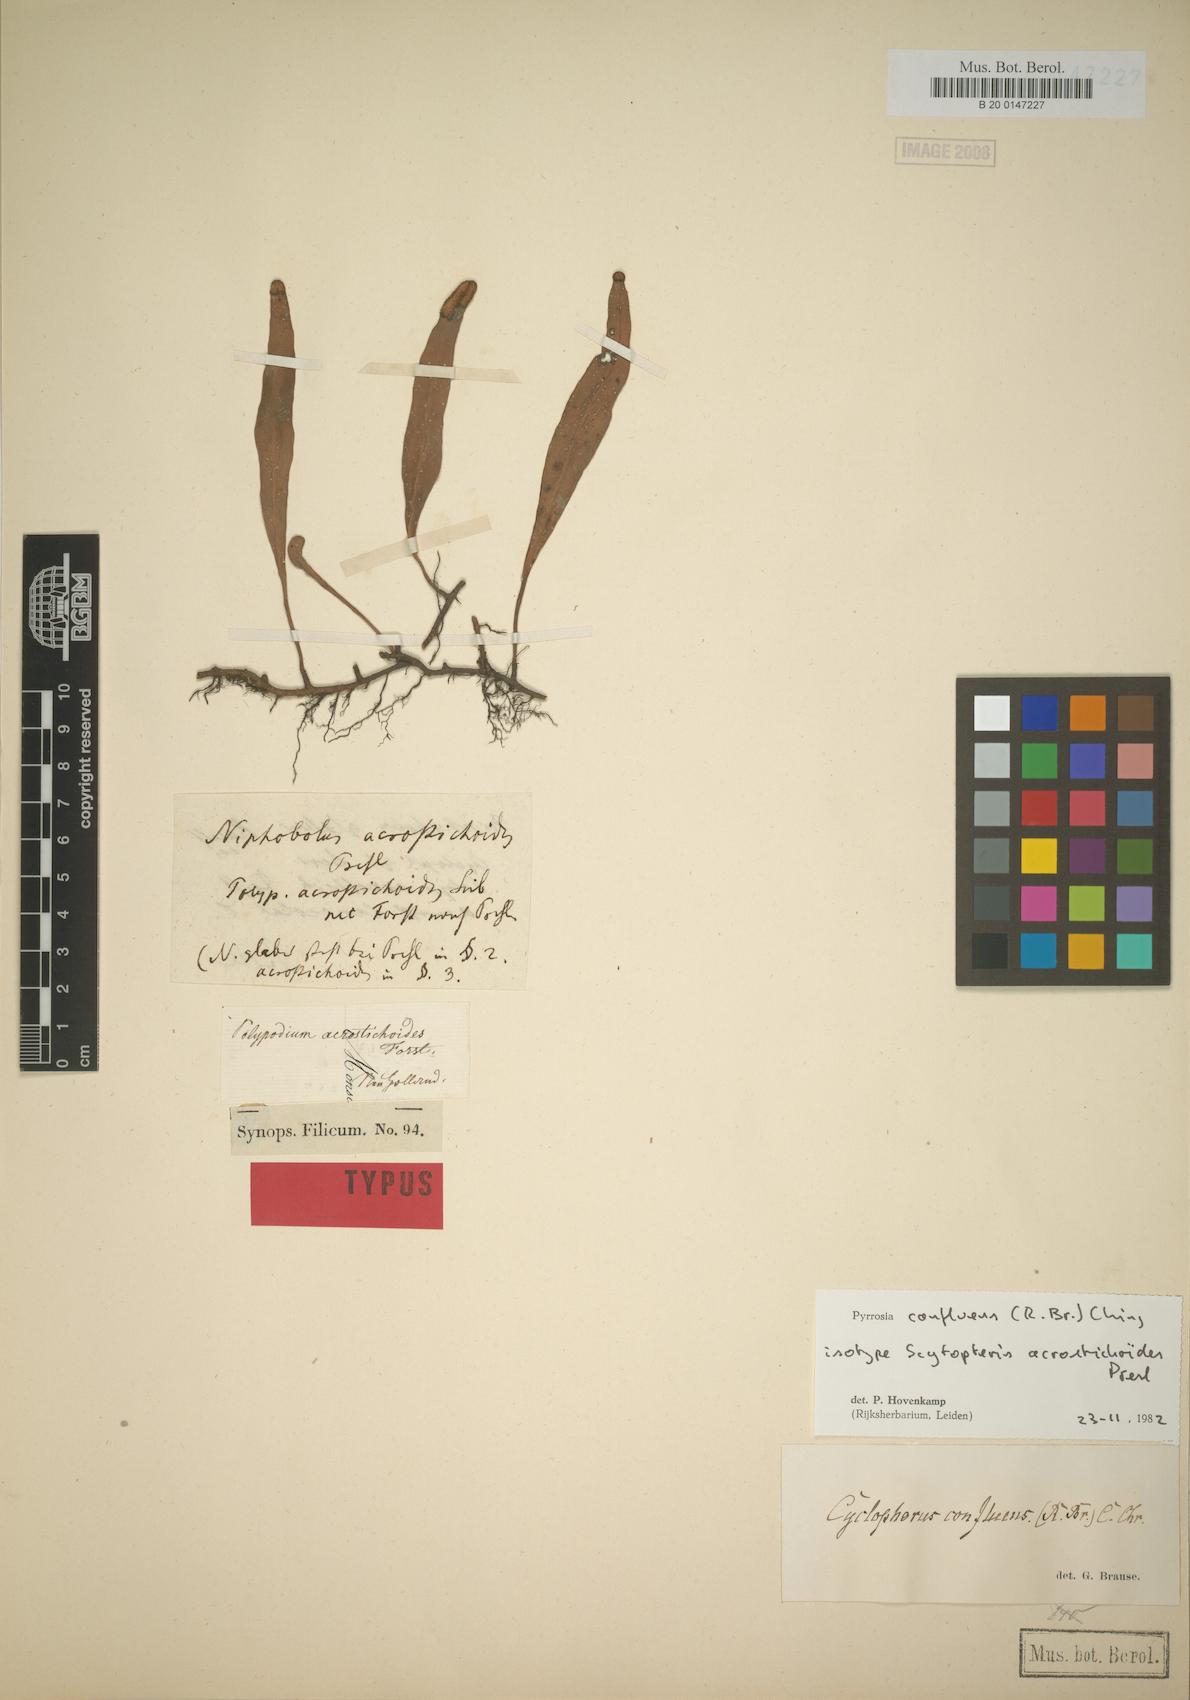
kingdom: Plantae
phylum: Tracheophyta
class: Polypodiopsida
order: Polypodiales
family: Polypodiaceae
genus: Pyrrosia
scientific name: Pyrrosia confluens
